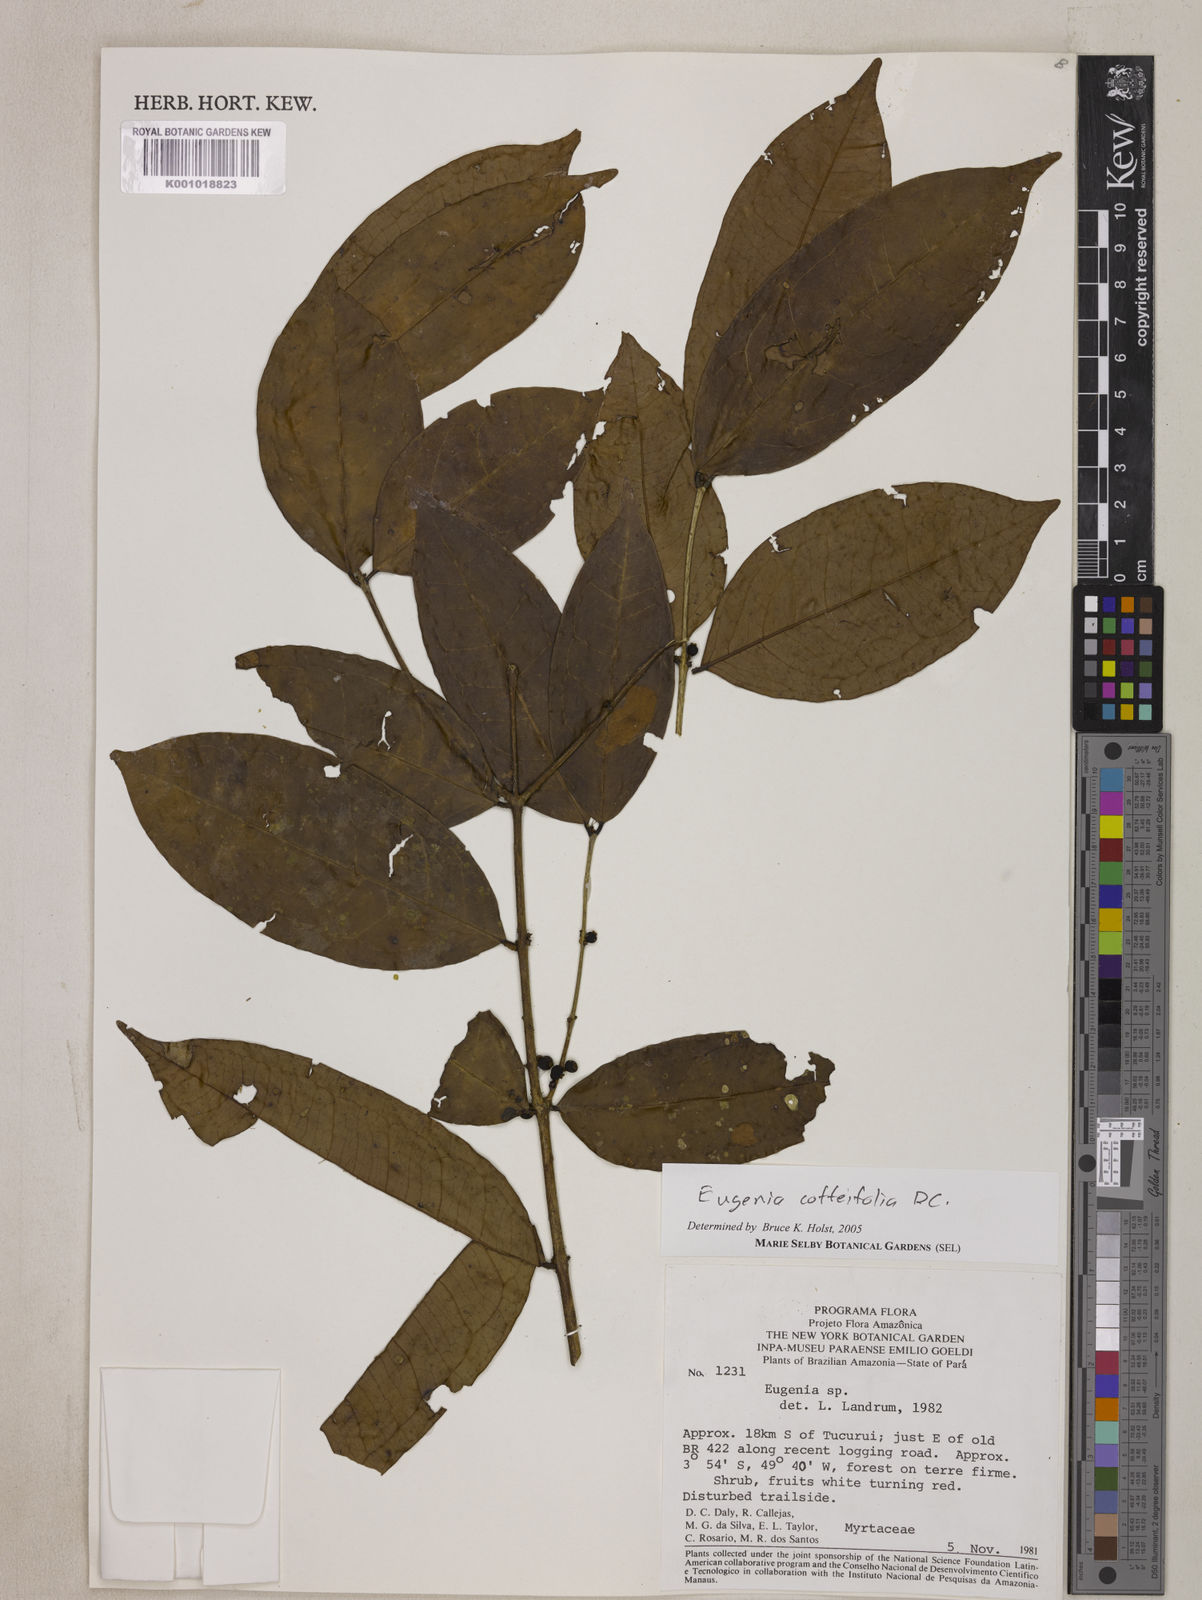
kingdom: Plantae
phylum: Tracheophyta
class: Magnoliopsida
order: Myrtales
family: Myrtaceae
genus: Eugenia
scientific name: Eugenia coffeifolia
